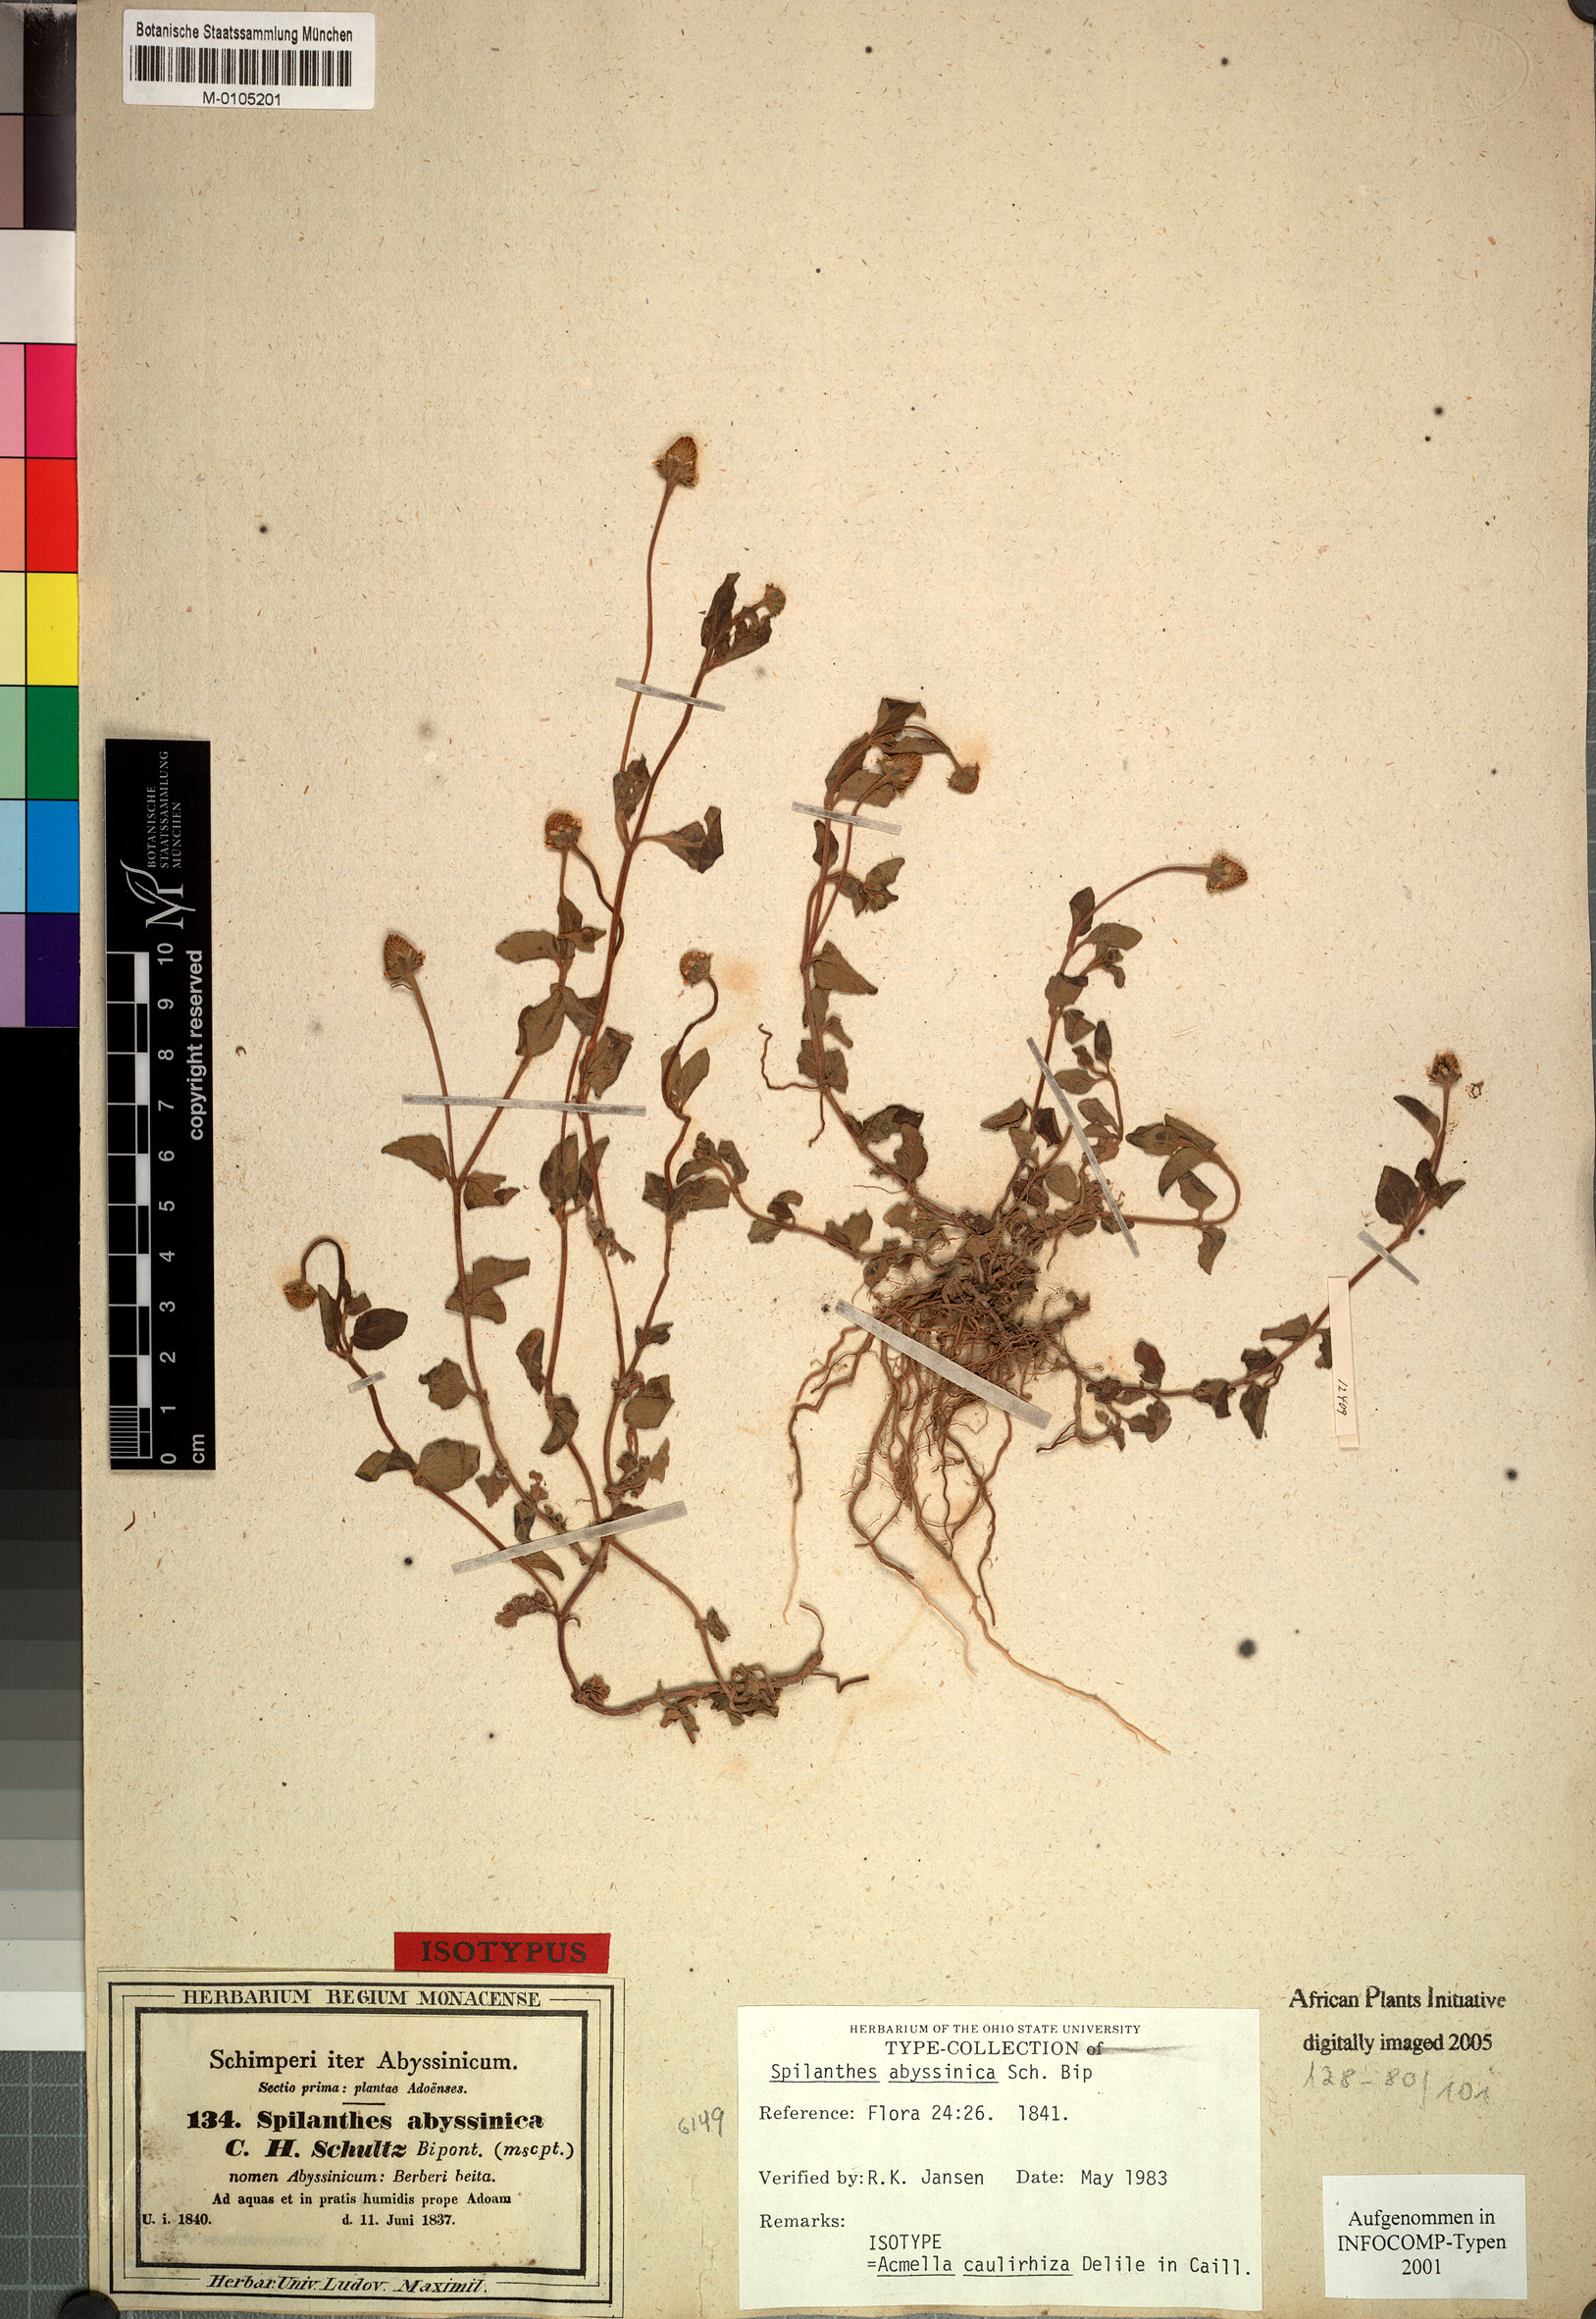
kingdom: Plantae
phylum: Tracheophyta
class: Magnoliopsida
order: Asterales
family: Asteraceae
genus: Acmella
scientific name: Acmella caulirhiza
